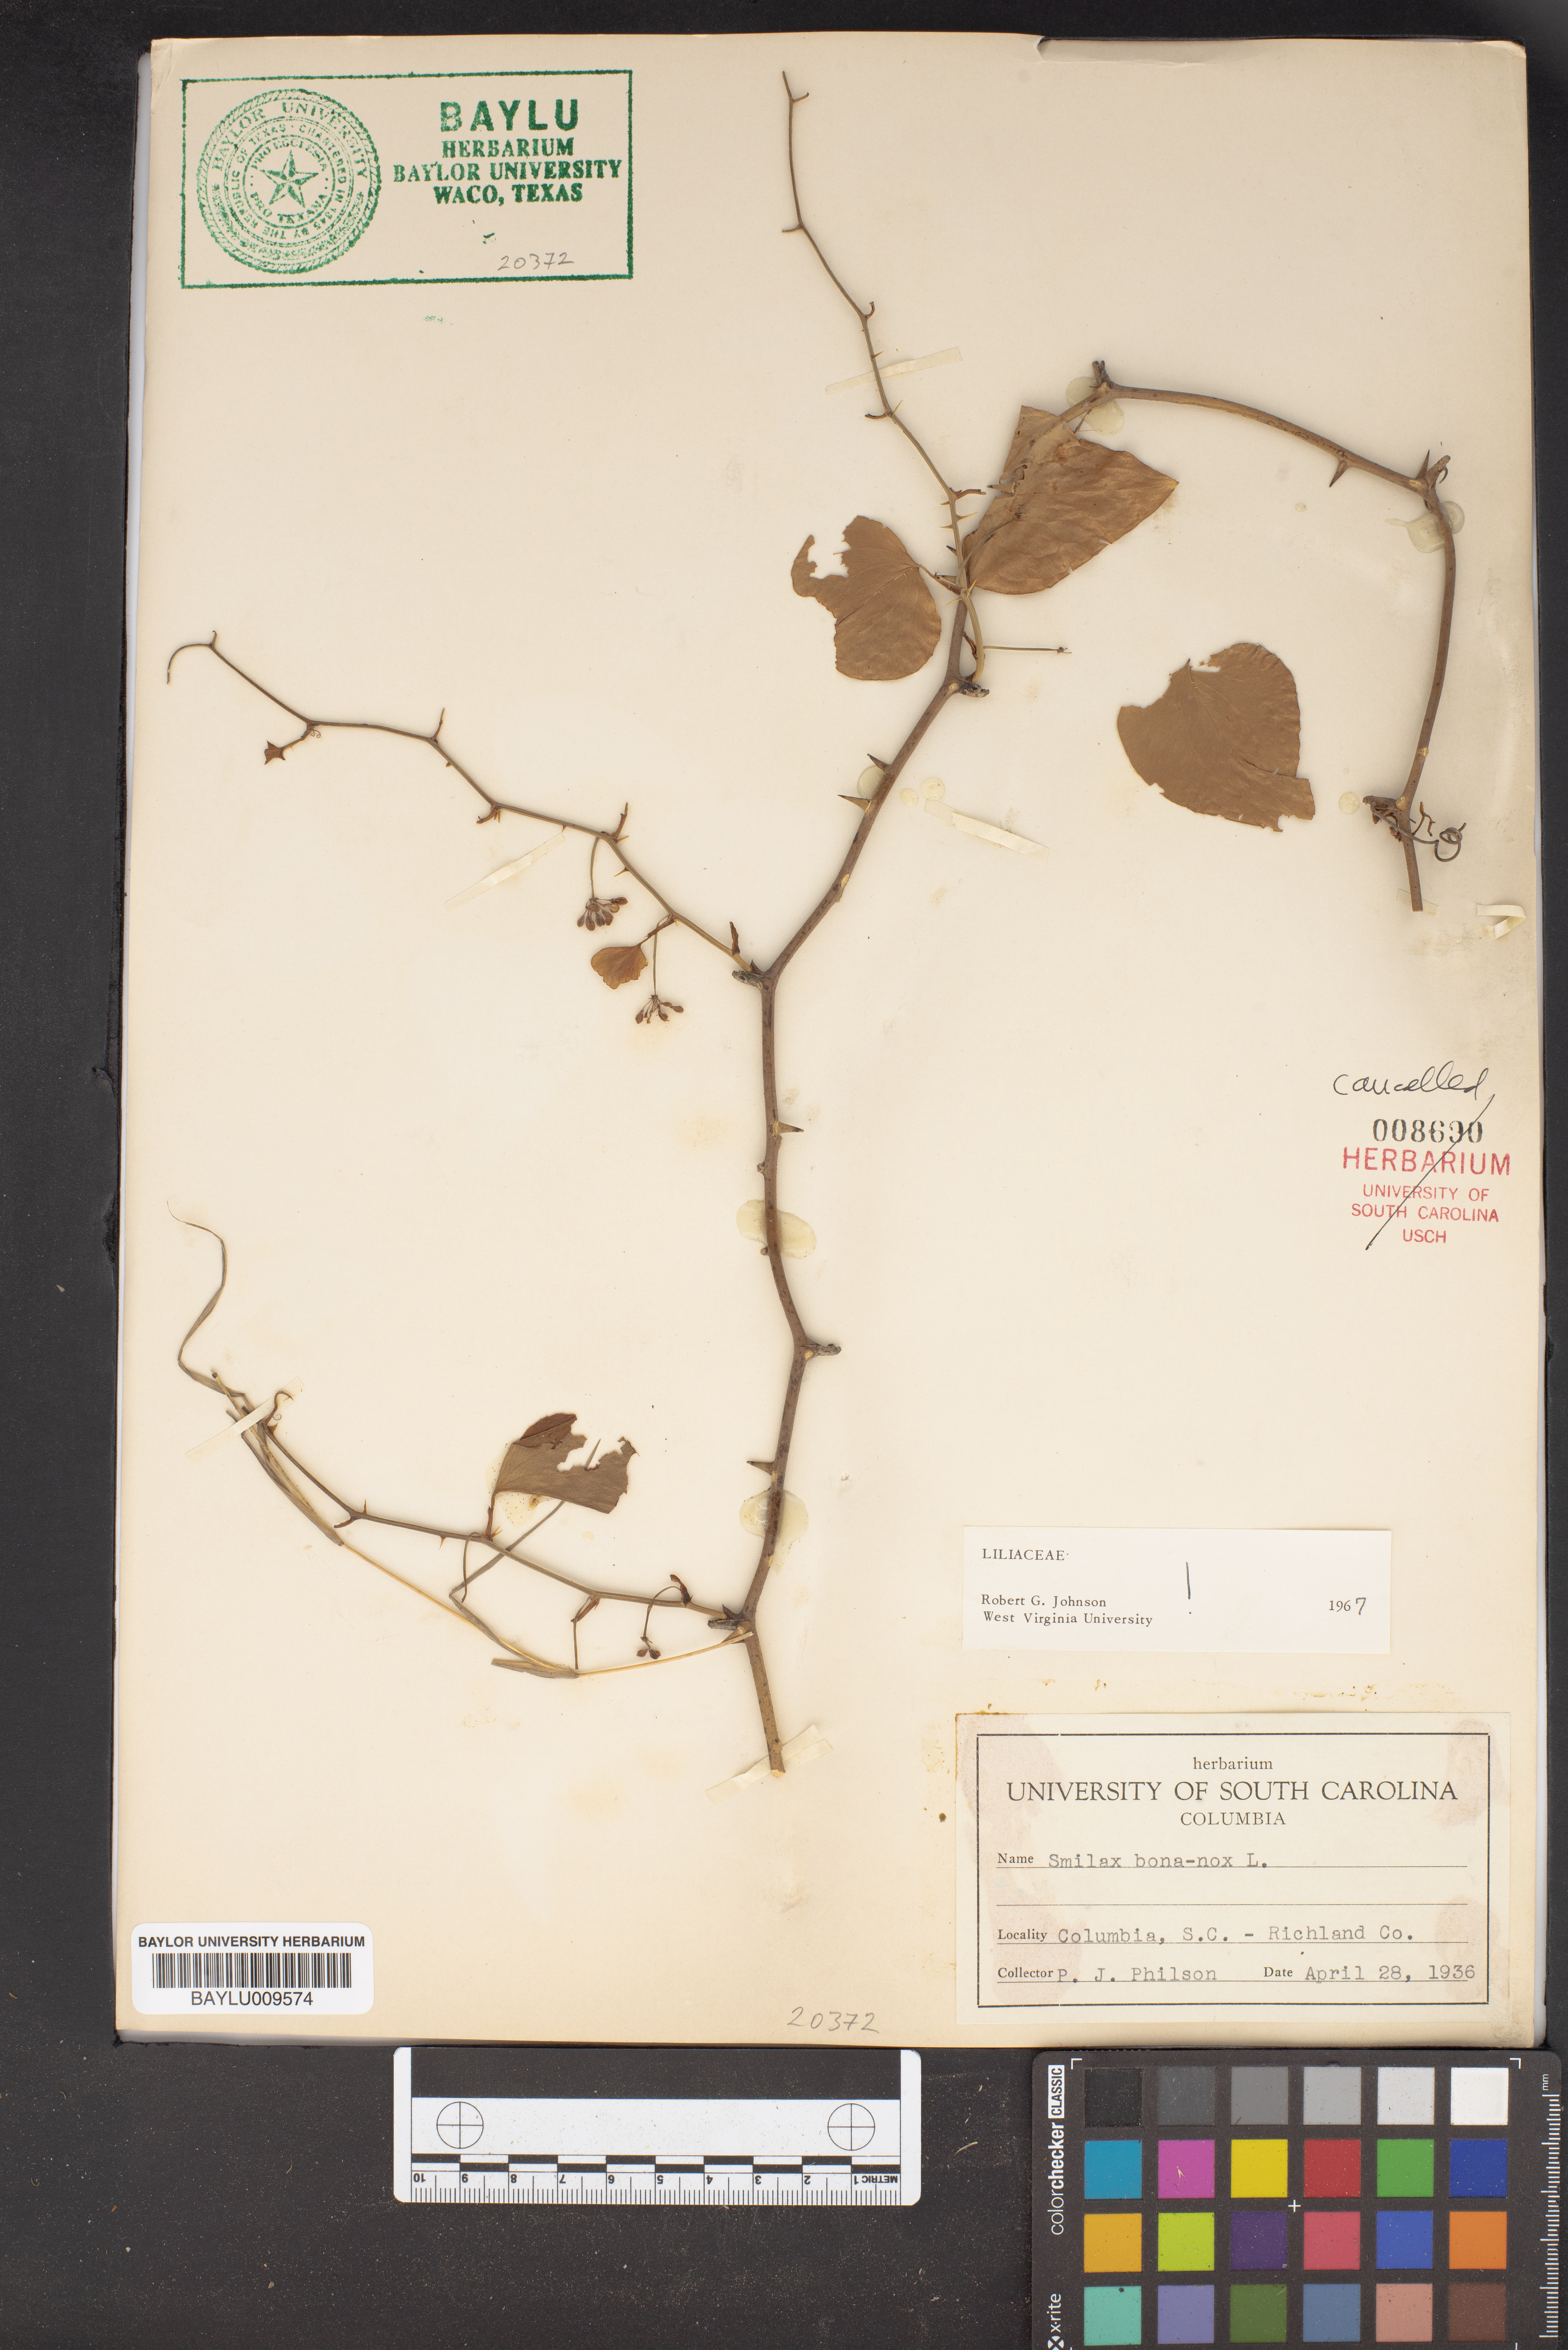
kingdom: Plantae
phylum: Tracheophyta
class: Liliopsida
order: Liliales
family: Smilacaceae
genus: Smilax
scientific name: Smilax bona-nox
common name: Catbrier
